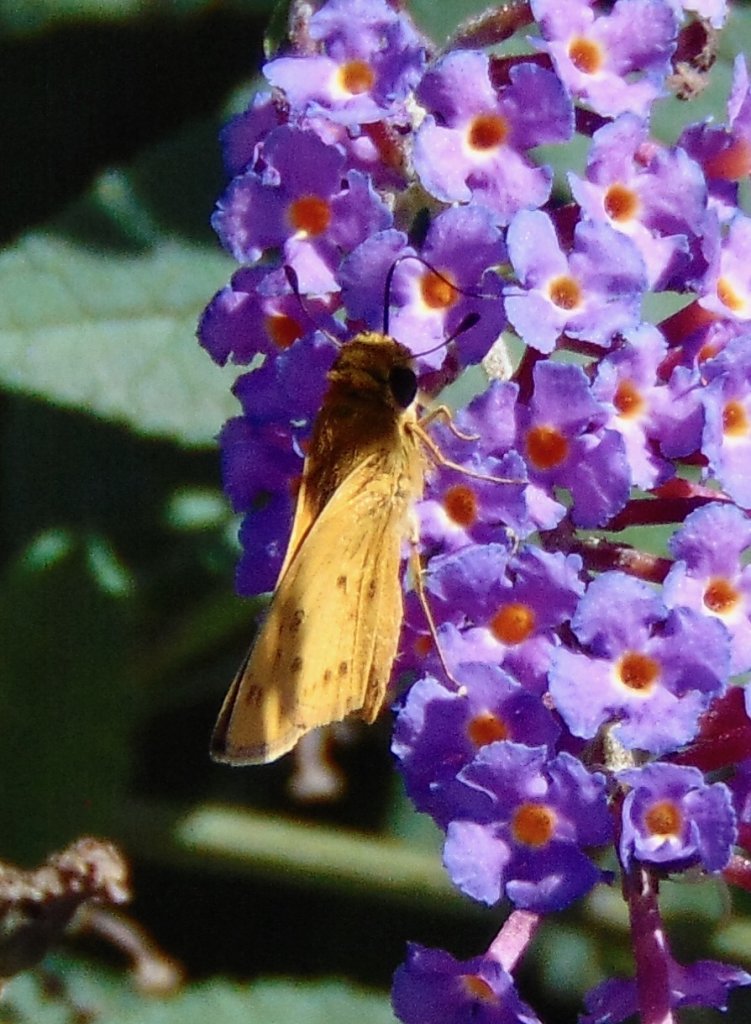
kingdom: Animalia
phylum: Arthropoda
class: Insecta
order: Lepidoptera
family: Hesperiidae
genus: Hylephila
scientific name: Hylephila phyleus
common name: Fiery Skipper
